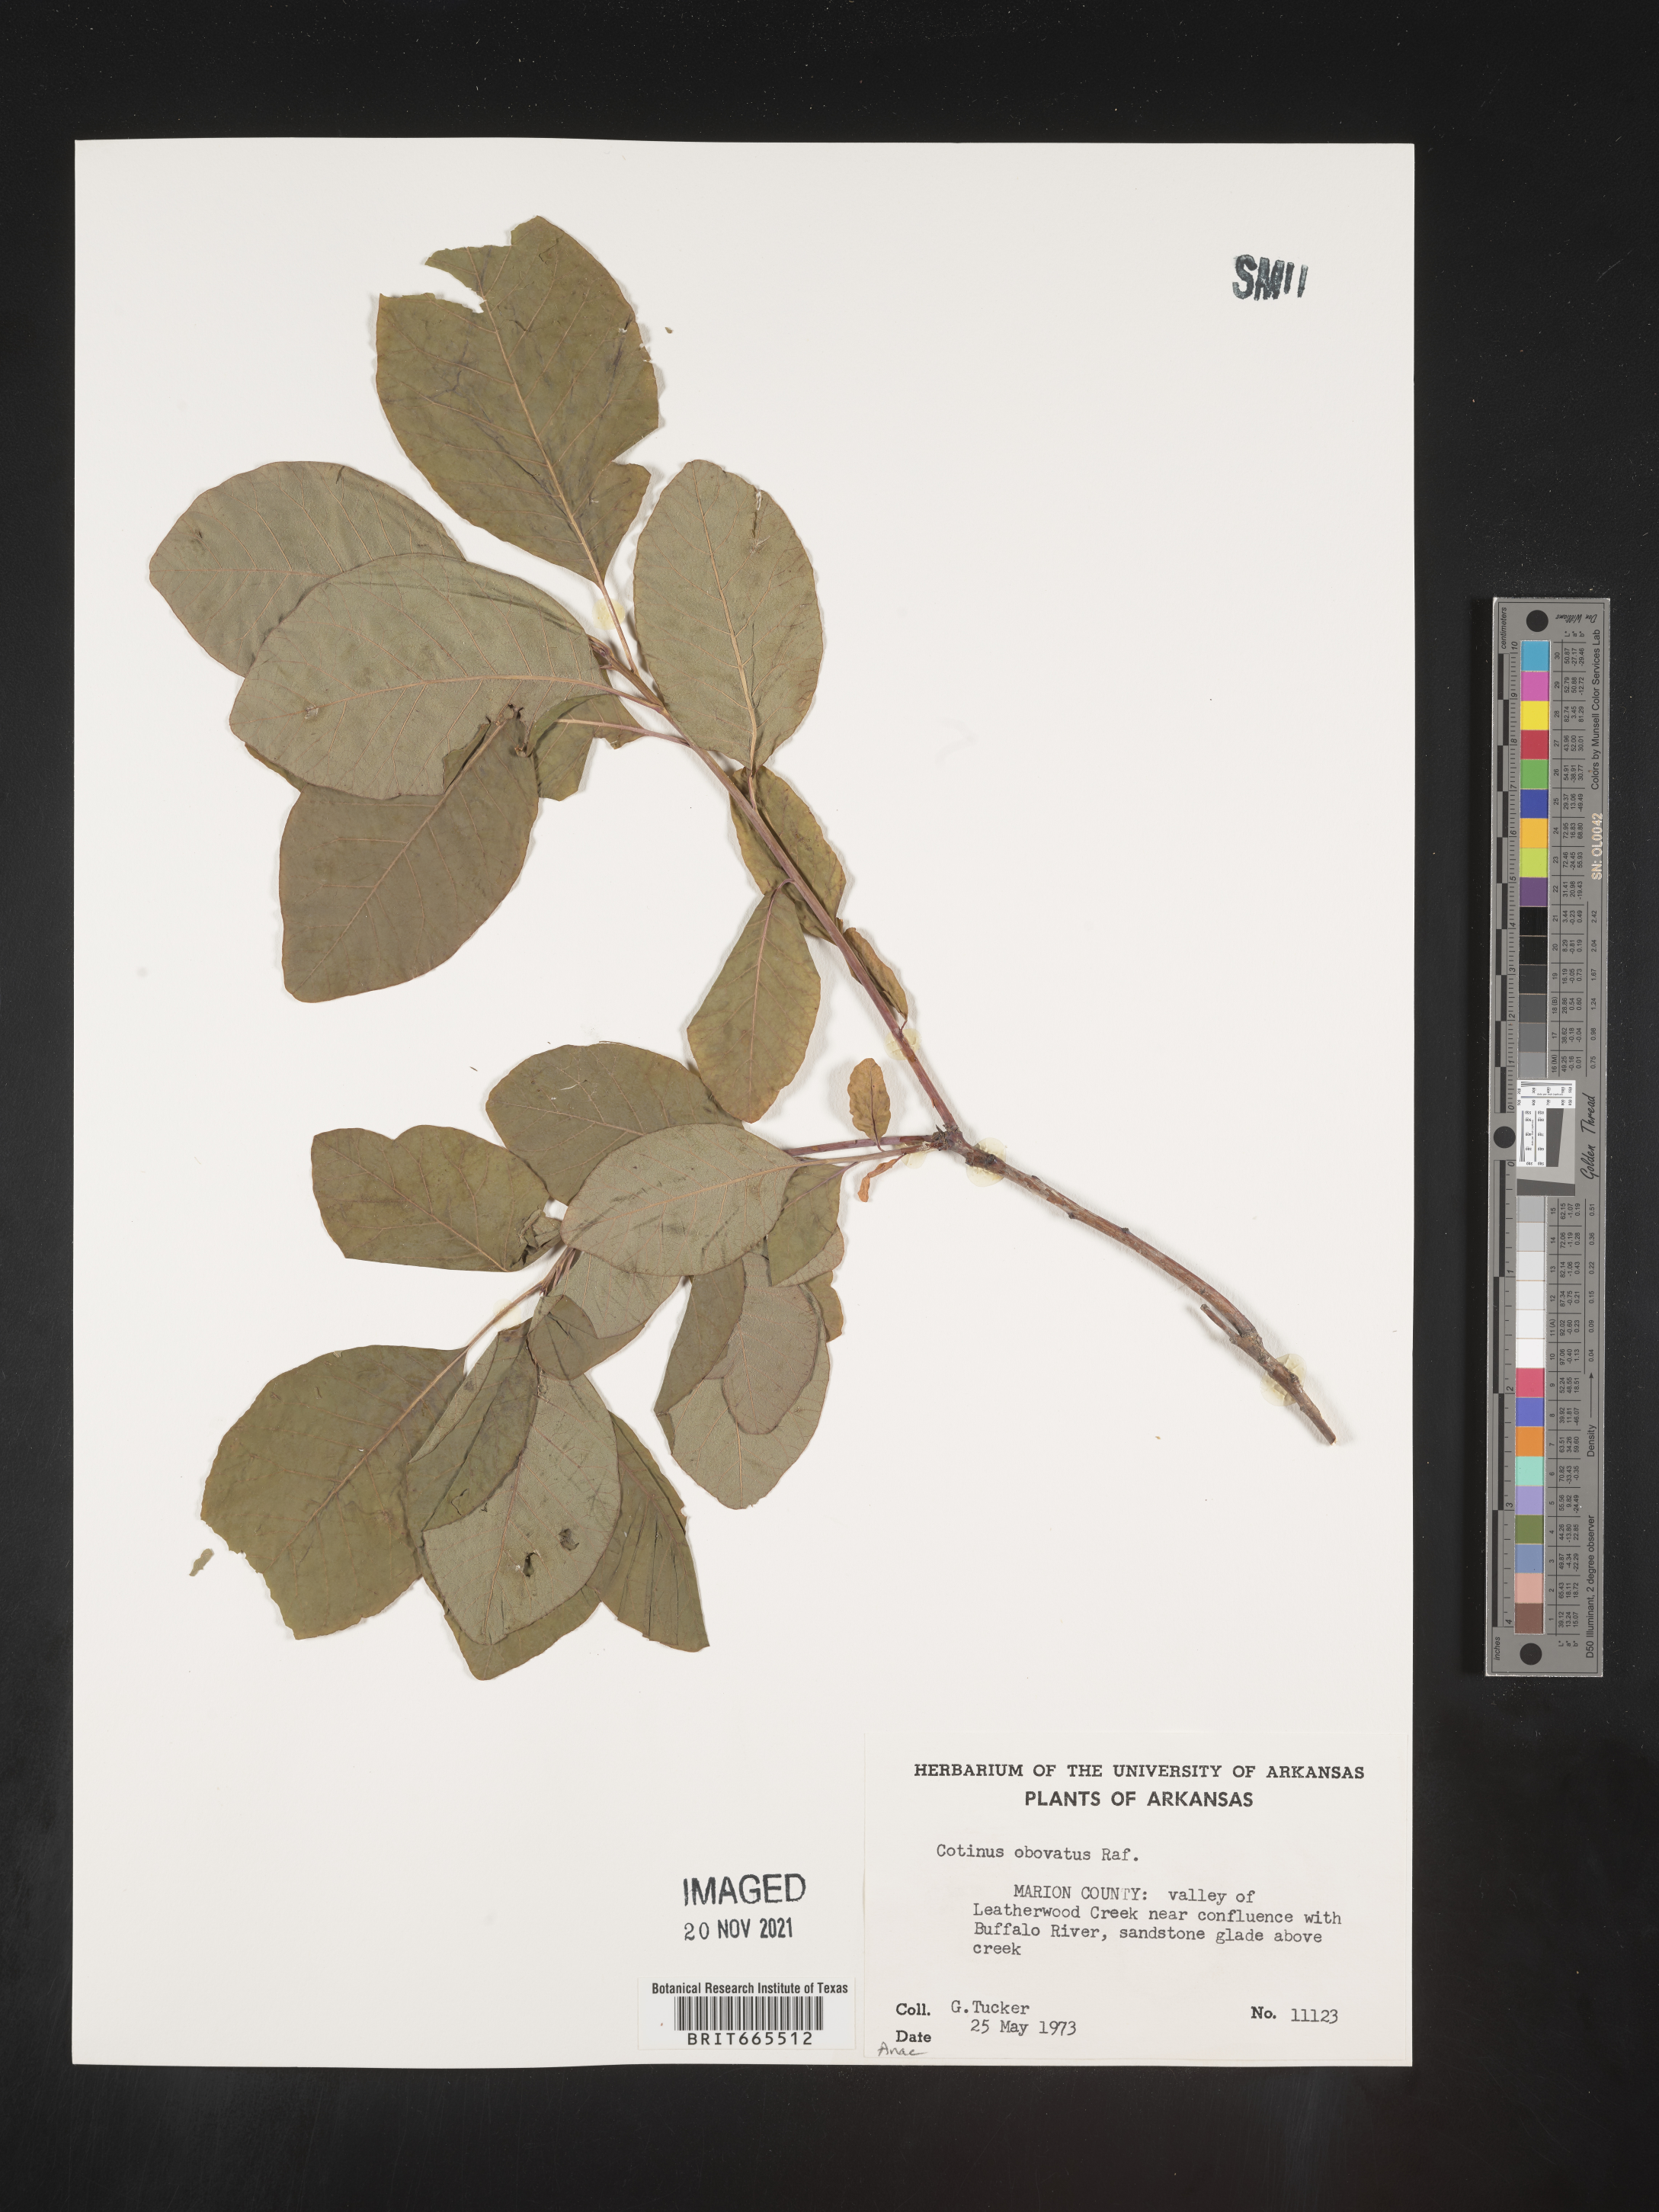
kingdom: Plantae
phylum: Tracheophyta
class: Magnoliopsida
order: Sapindales
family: Anacardiaceae
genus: Cotinus
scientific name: Cotinus obovatus
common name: Chittamwood
